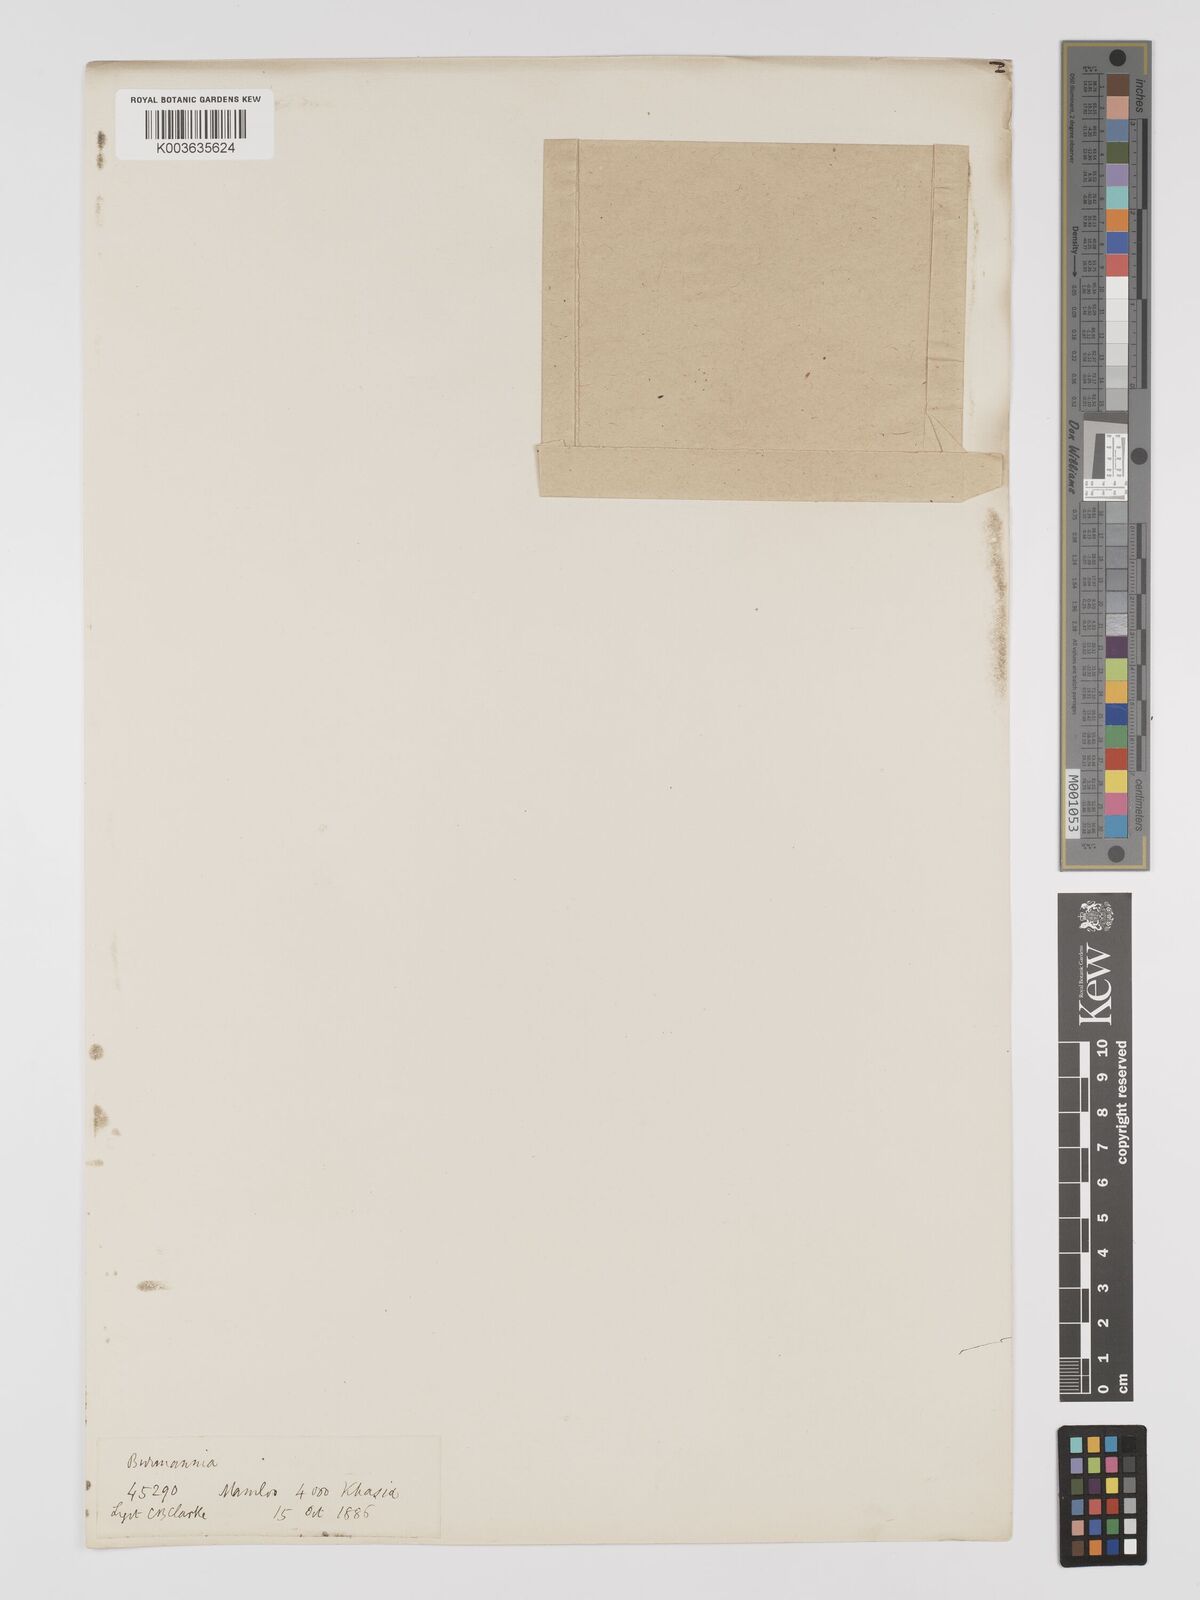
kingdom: Plantae
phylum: Tracheophyta
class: Liliopsida
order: Dioscoreales
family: Burmanniaceae
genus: Burmannia
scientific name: Burmannia nepalensis
